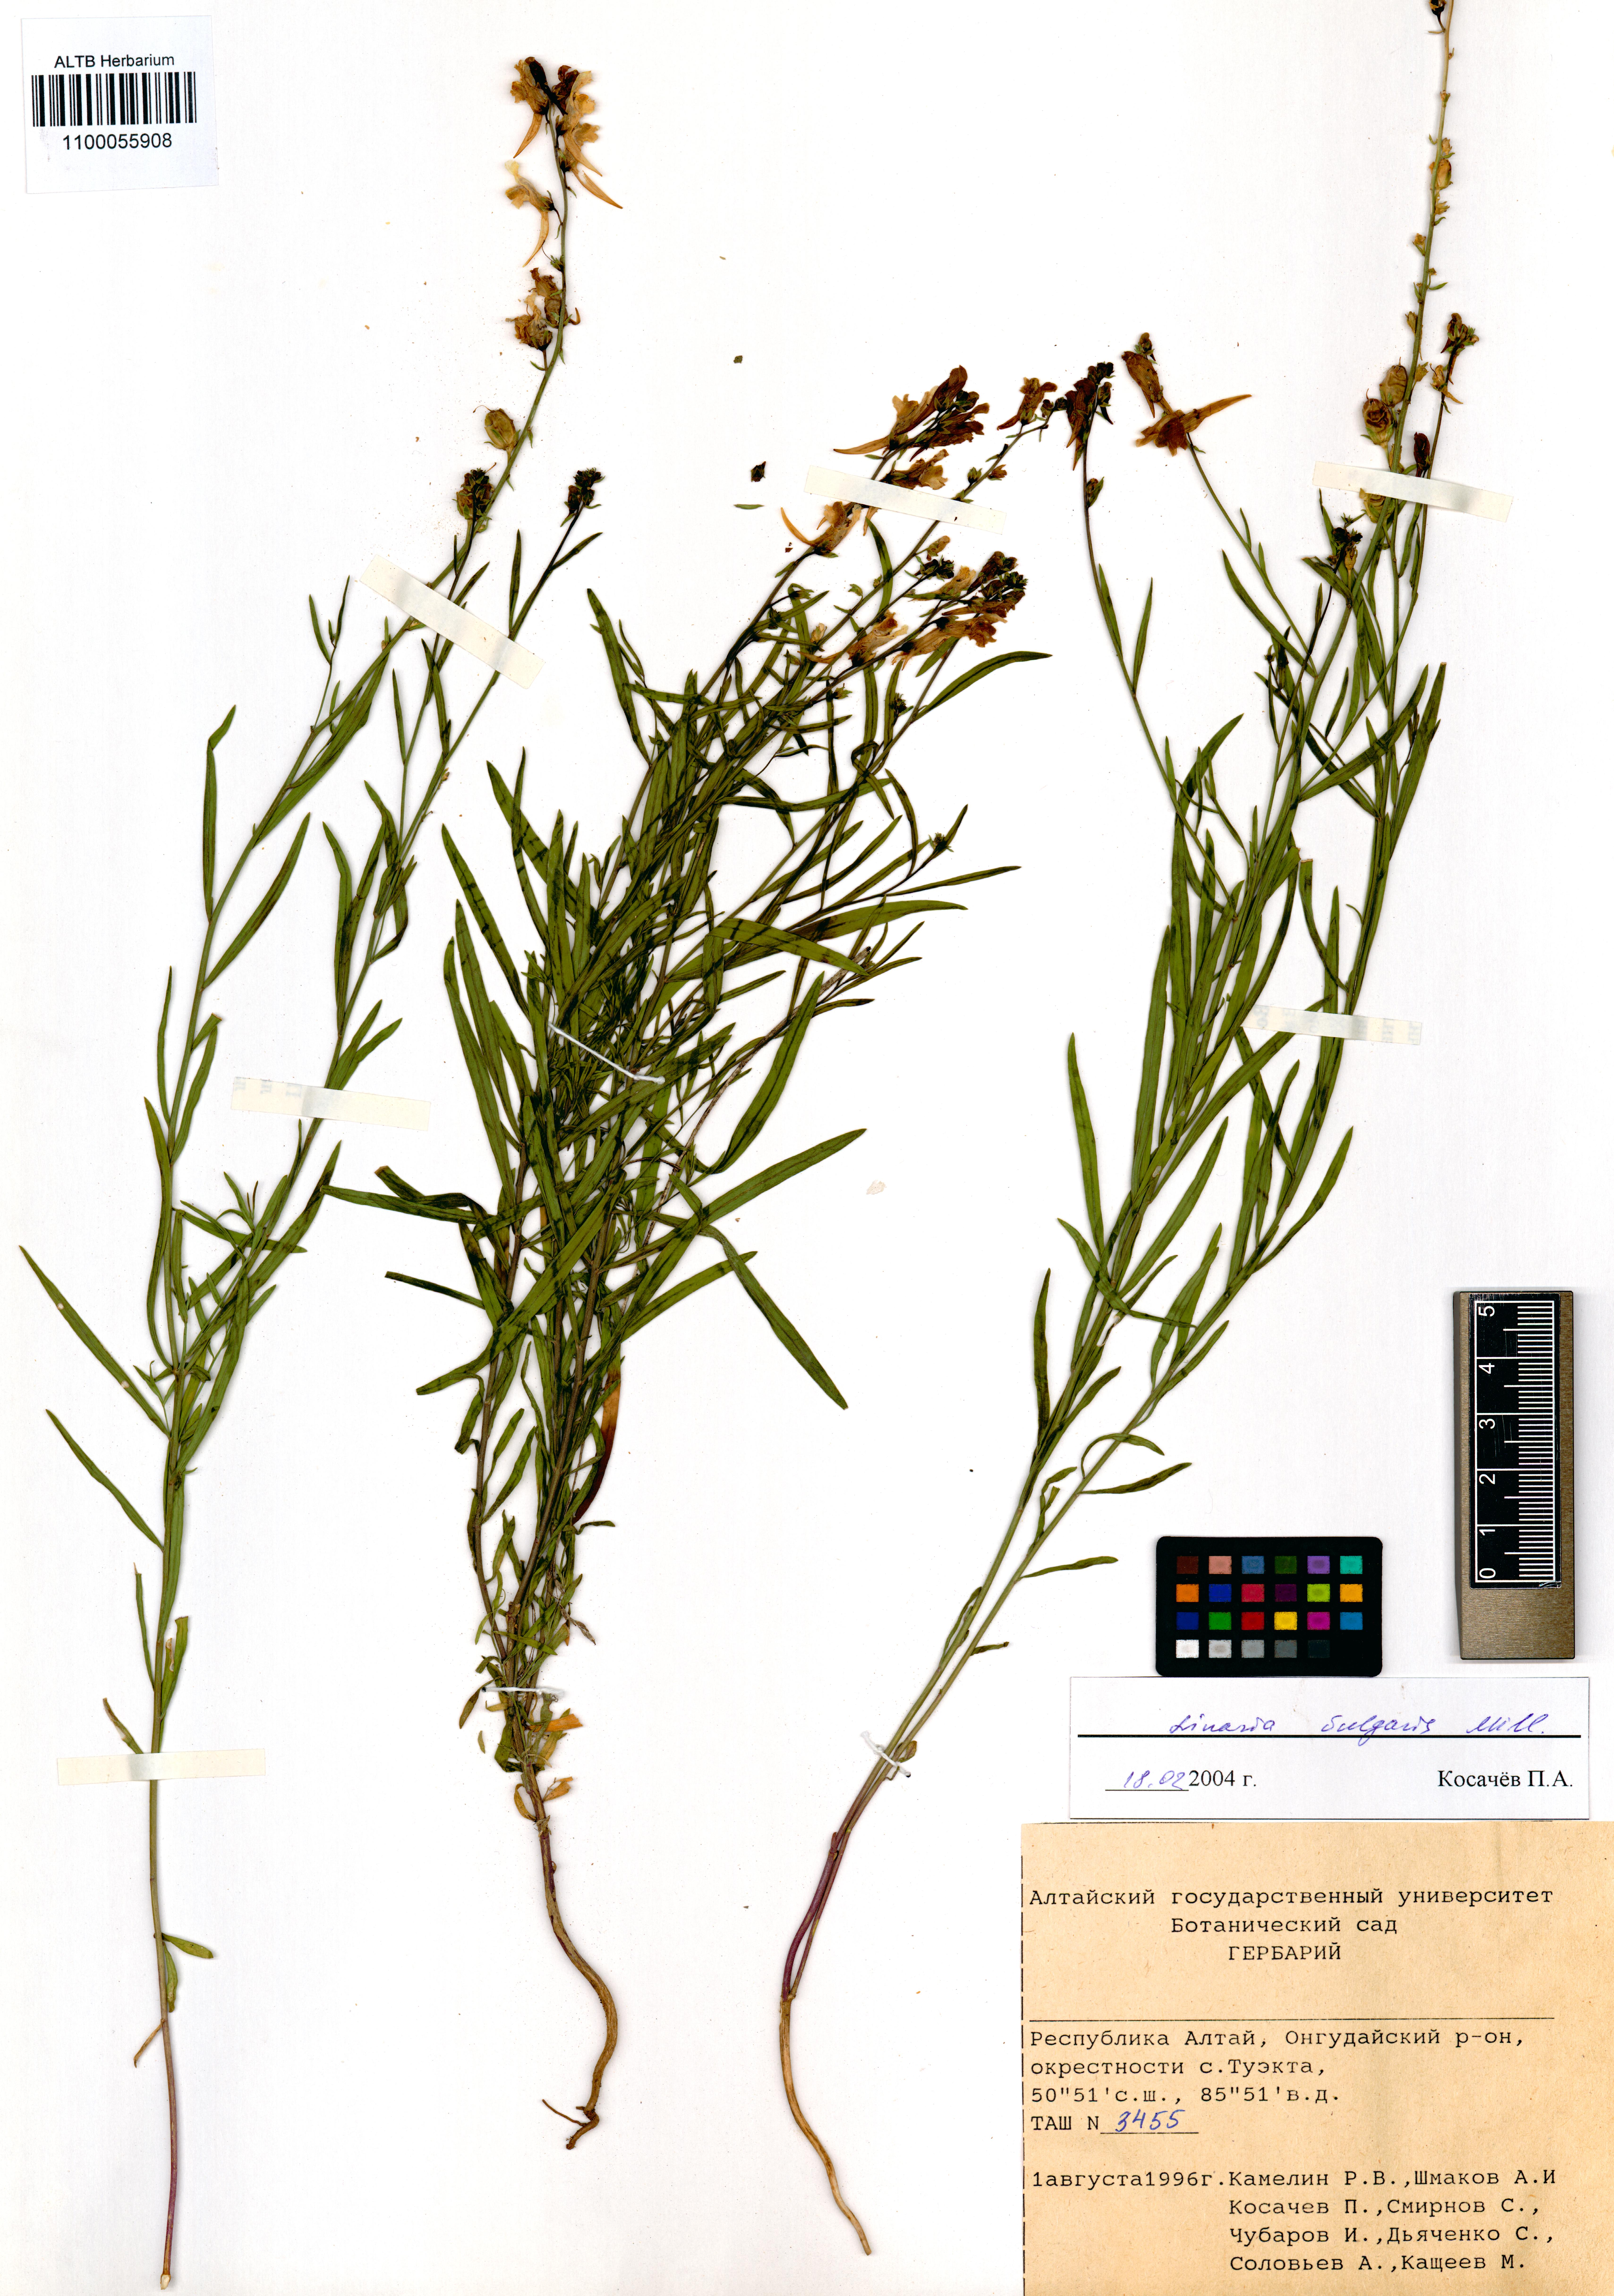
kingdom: Plantae
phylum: Tracheophyta
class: Magnoliopsida
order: Lamiales
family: Plantaginaceae
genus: Linaria
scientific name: Linaria vulgaris
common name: Butter and eggs
